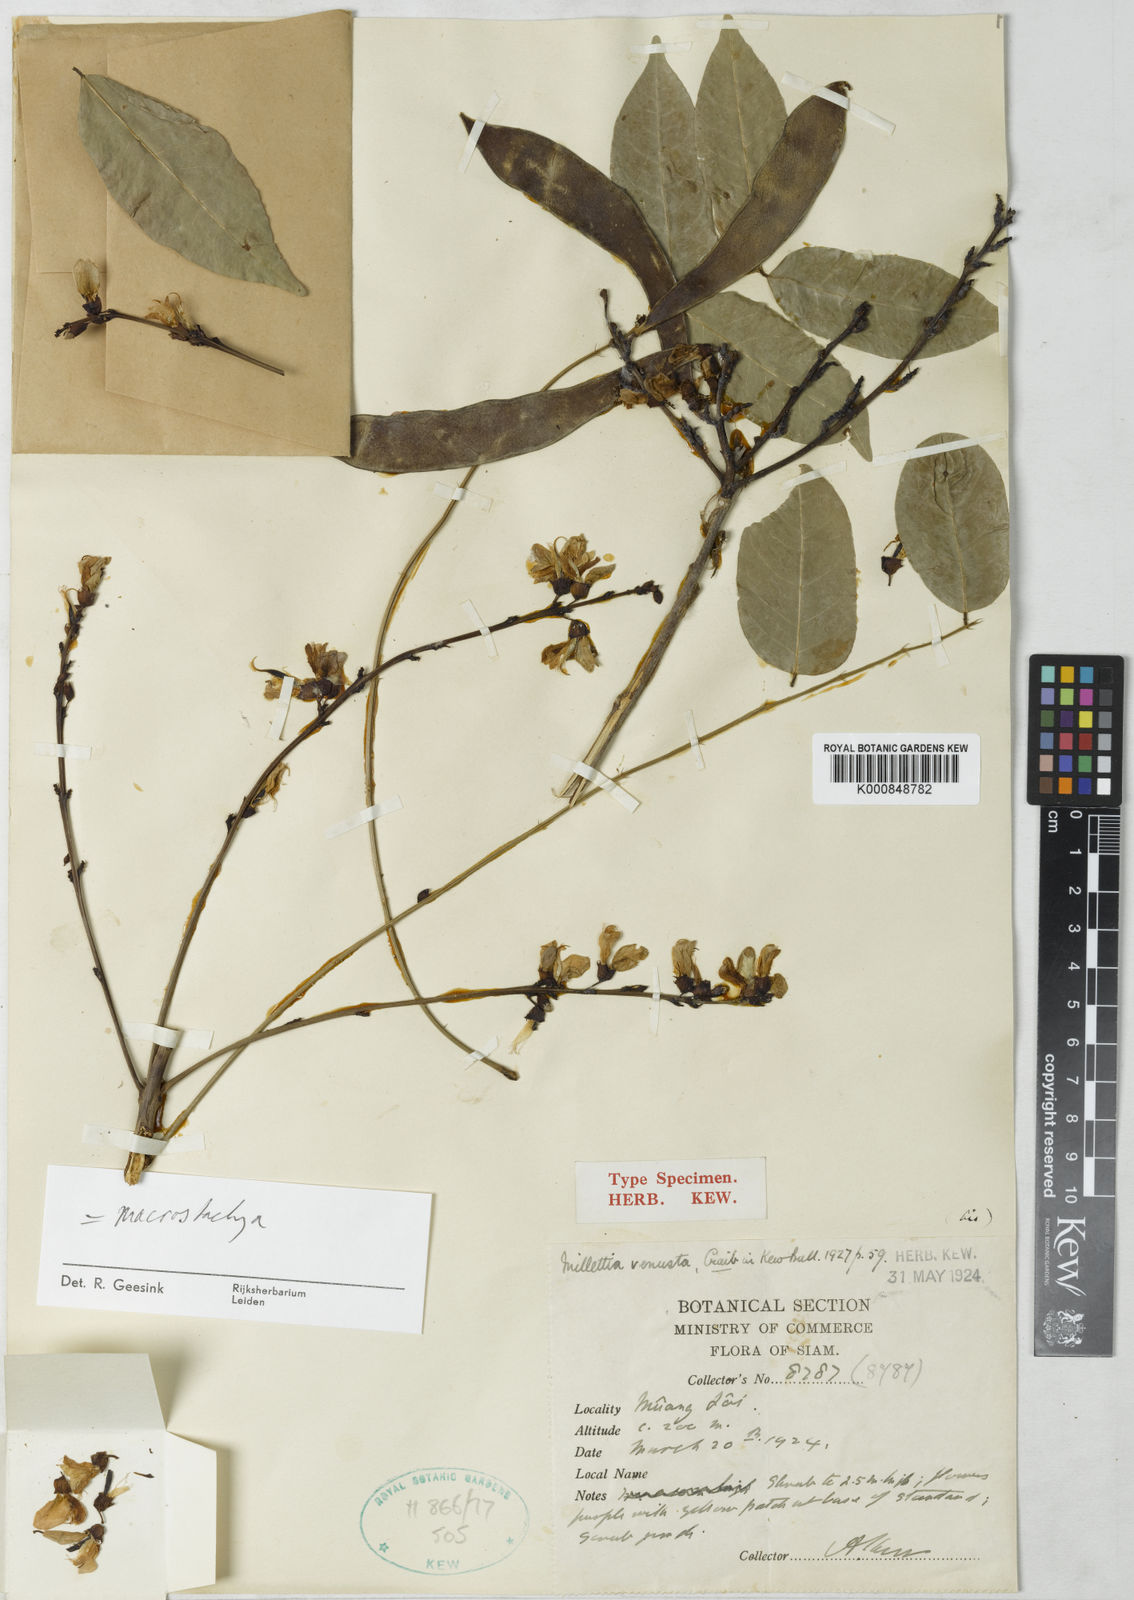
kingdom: Plantae
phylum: Tracheophyta
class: Magnoliopsida
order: Fabales
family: Fabaceae
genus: Millettia
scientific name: Millettia brandisiana
